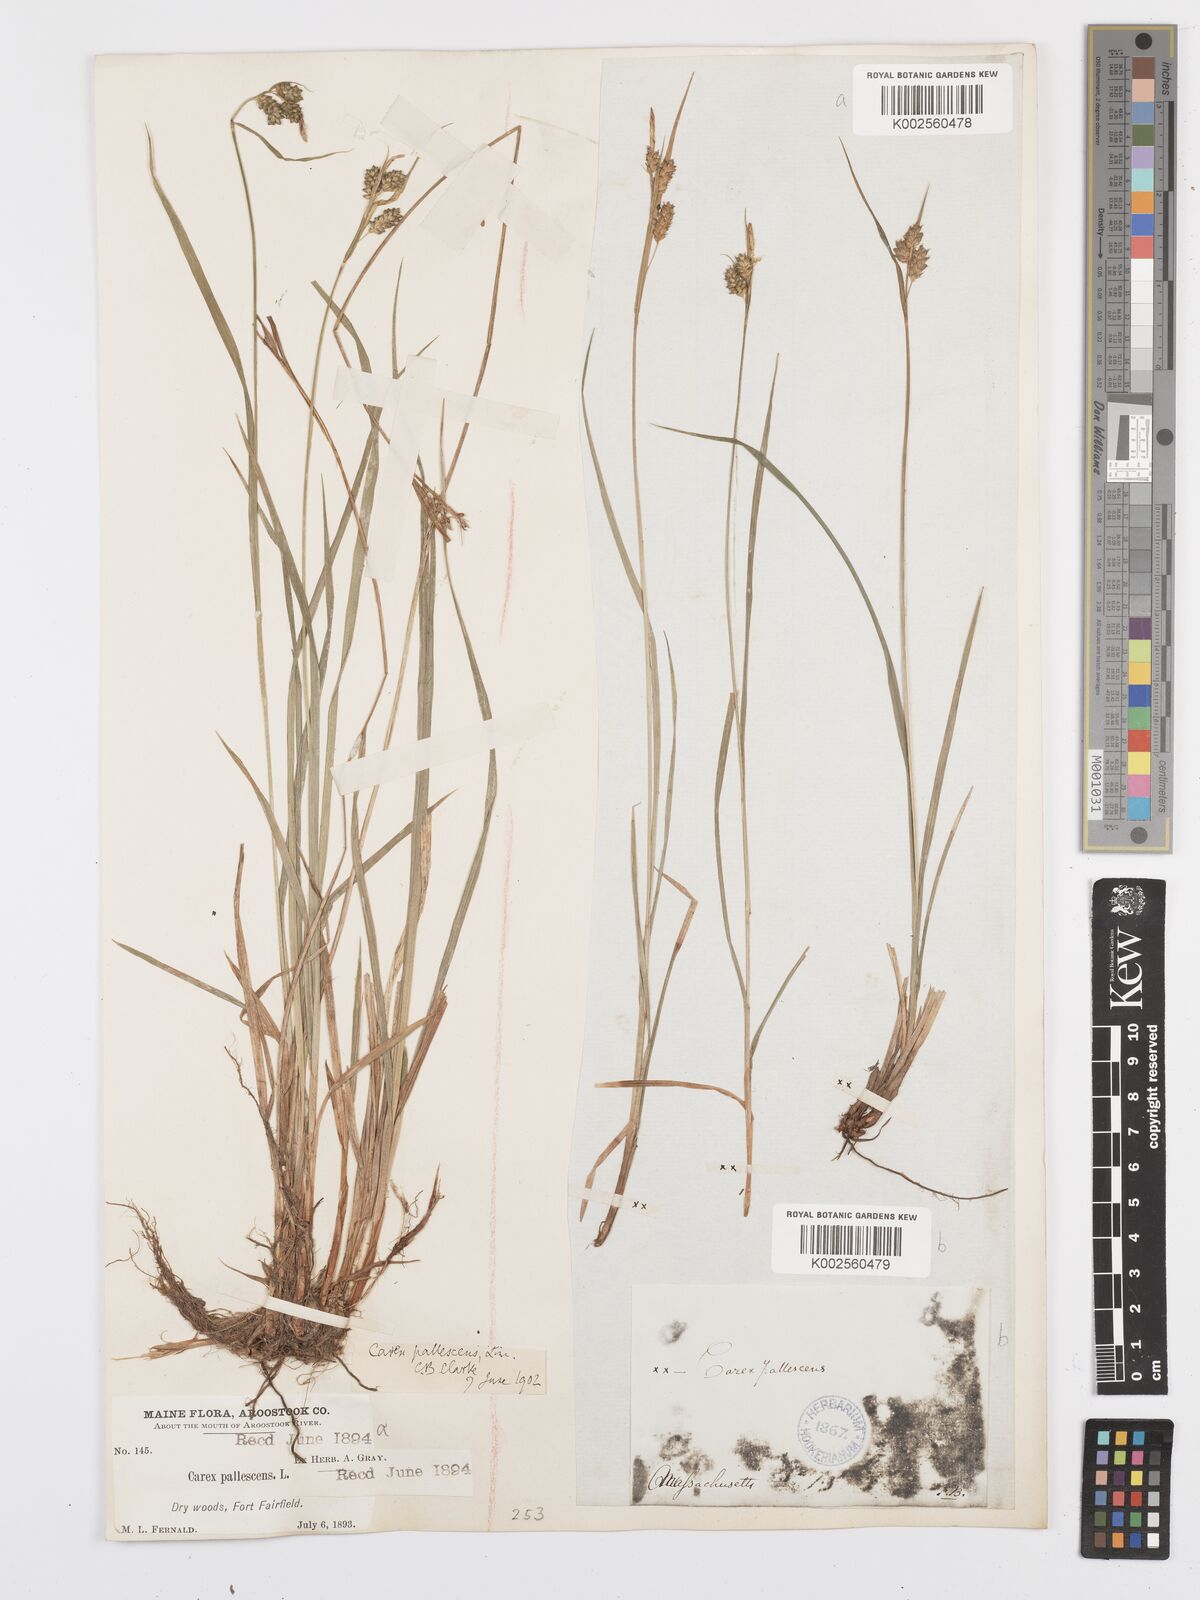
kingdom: Plantae
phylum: Tracheophyta
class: Liliopsida
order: Poales
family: Cyperaceae
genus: Carex
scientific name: Carex pallescens
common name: Pale sedge
